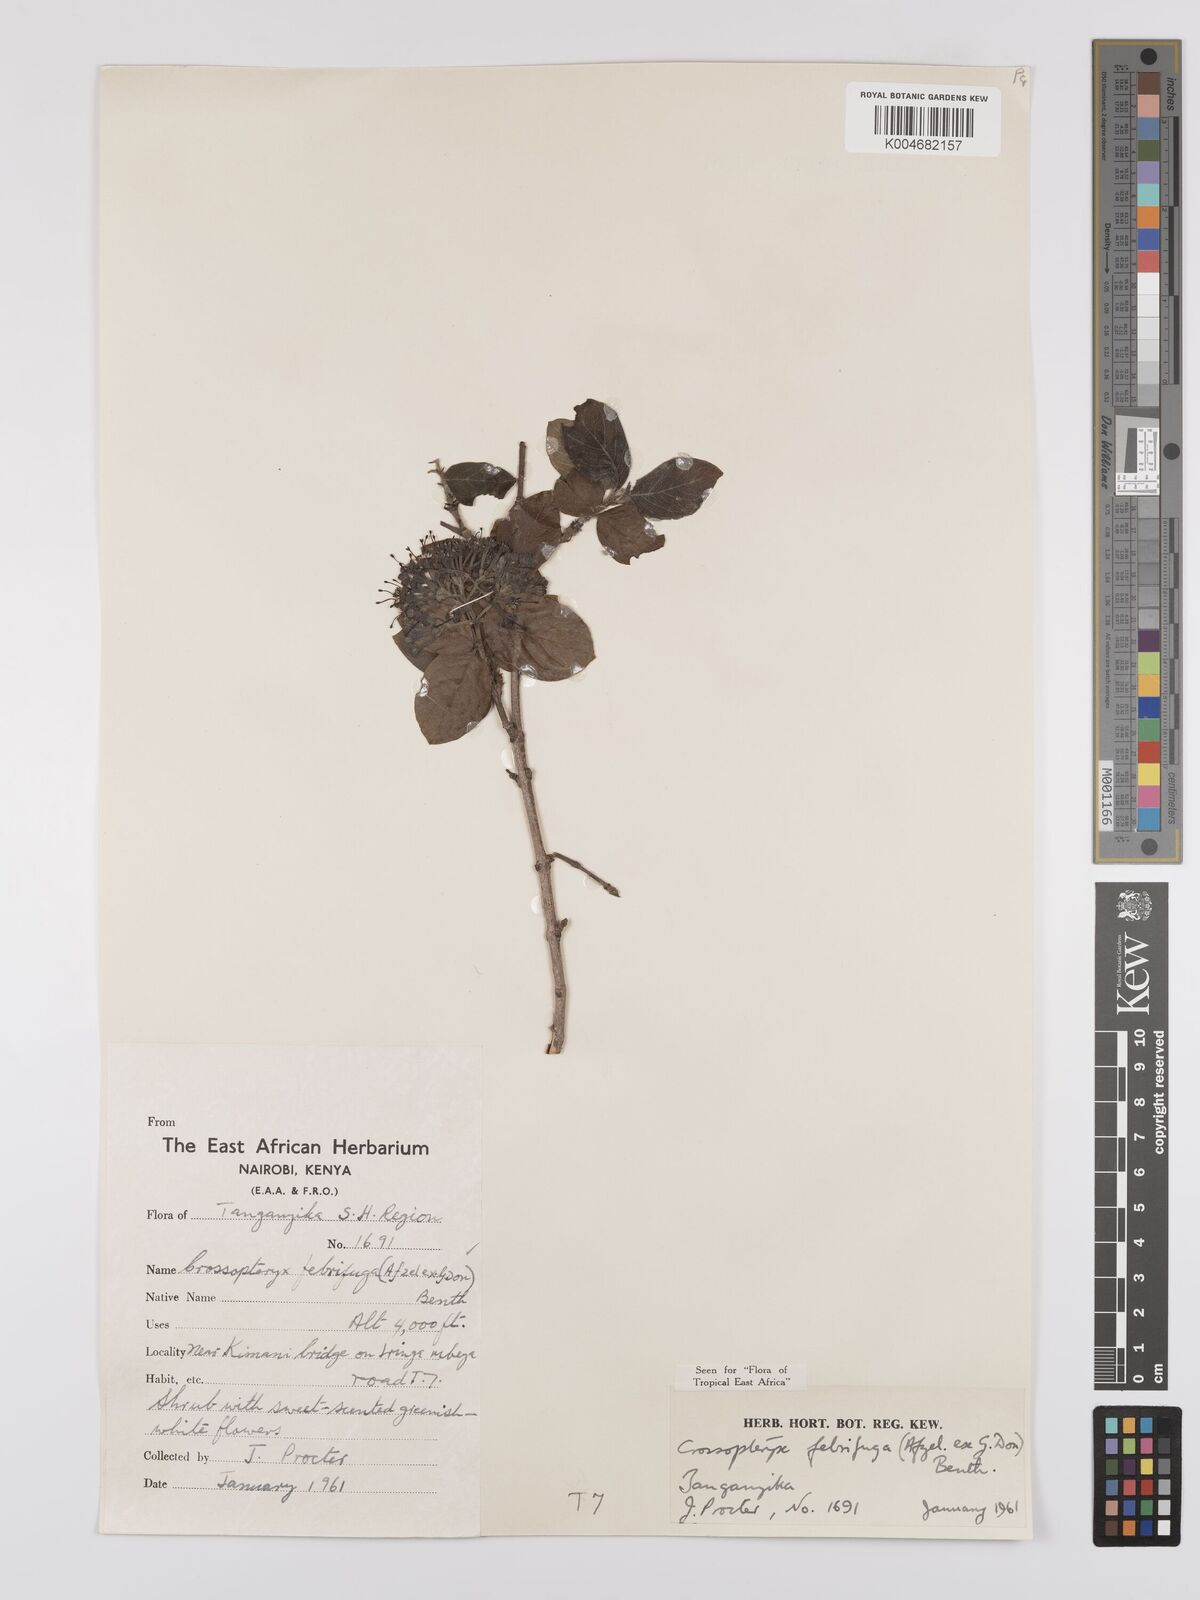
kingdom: Plantae
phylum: Tracheophyta
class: Magnoliopsida
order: Gentianales
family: Rubiaceae
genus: Crossopteryx
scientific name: Crossopteryx febrifuga
